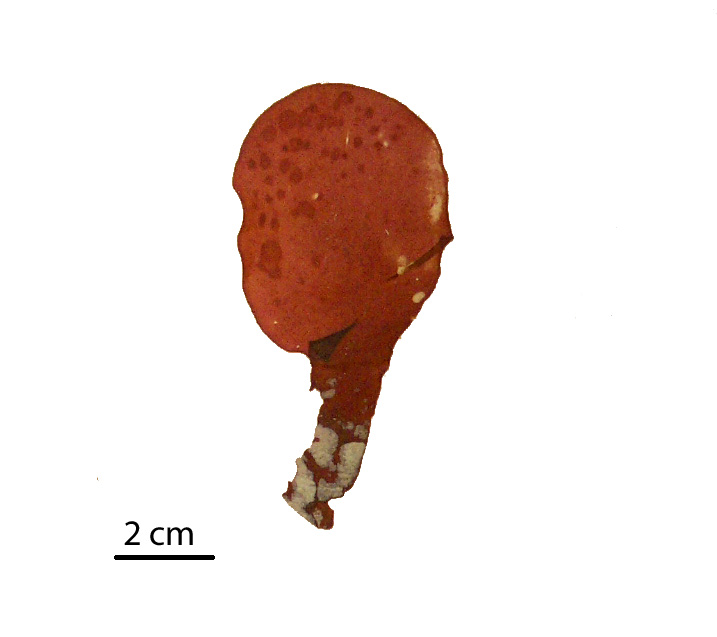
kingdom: Plantae
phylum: Rhodophyta
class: Florideophyceae
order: Gigartinales
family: Kallymeniaceae
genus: Psaromenia
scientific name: Psaromenia berggrenii
